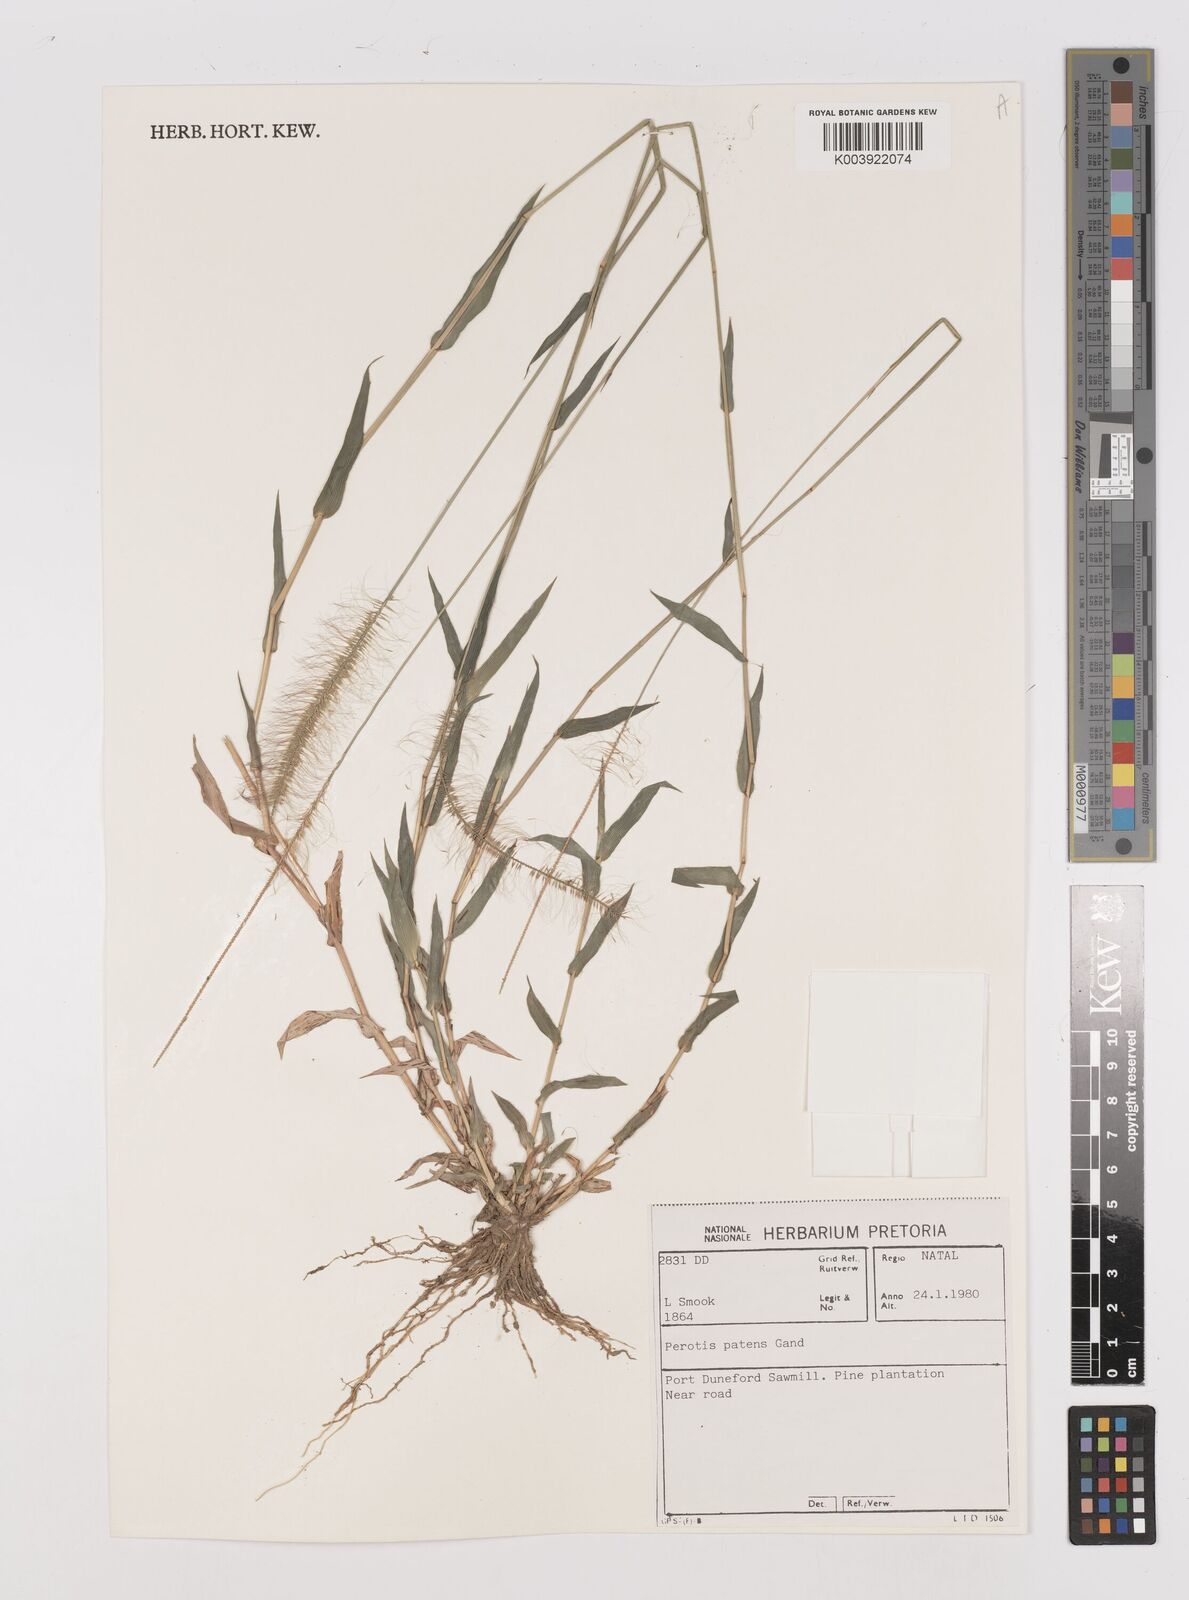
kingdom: Plantae
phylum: Tracheophyta
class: Liliopsida
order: Poales
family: Poaceae
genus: Perotis
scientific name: Perotis patens
